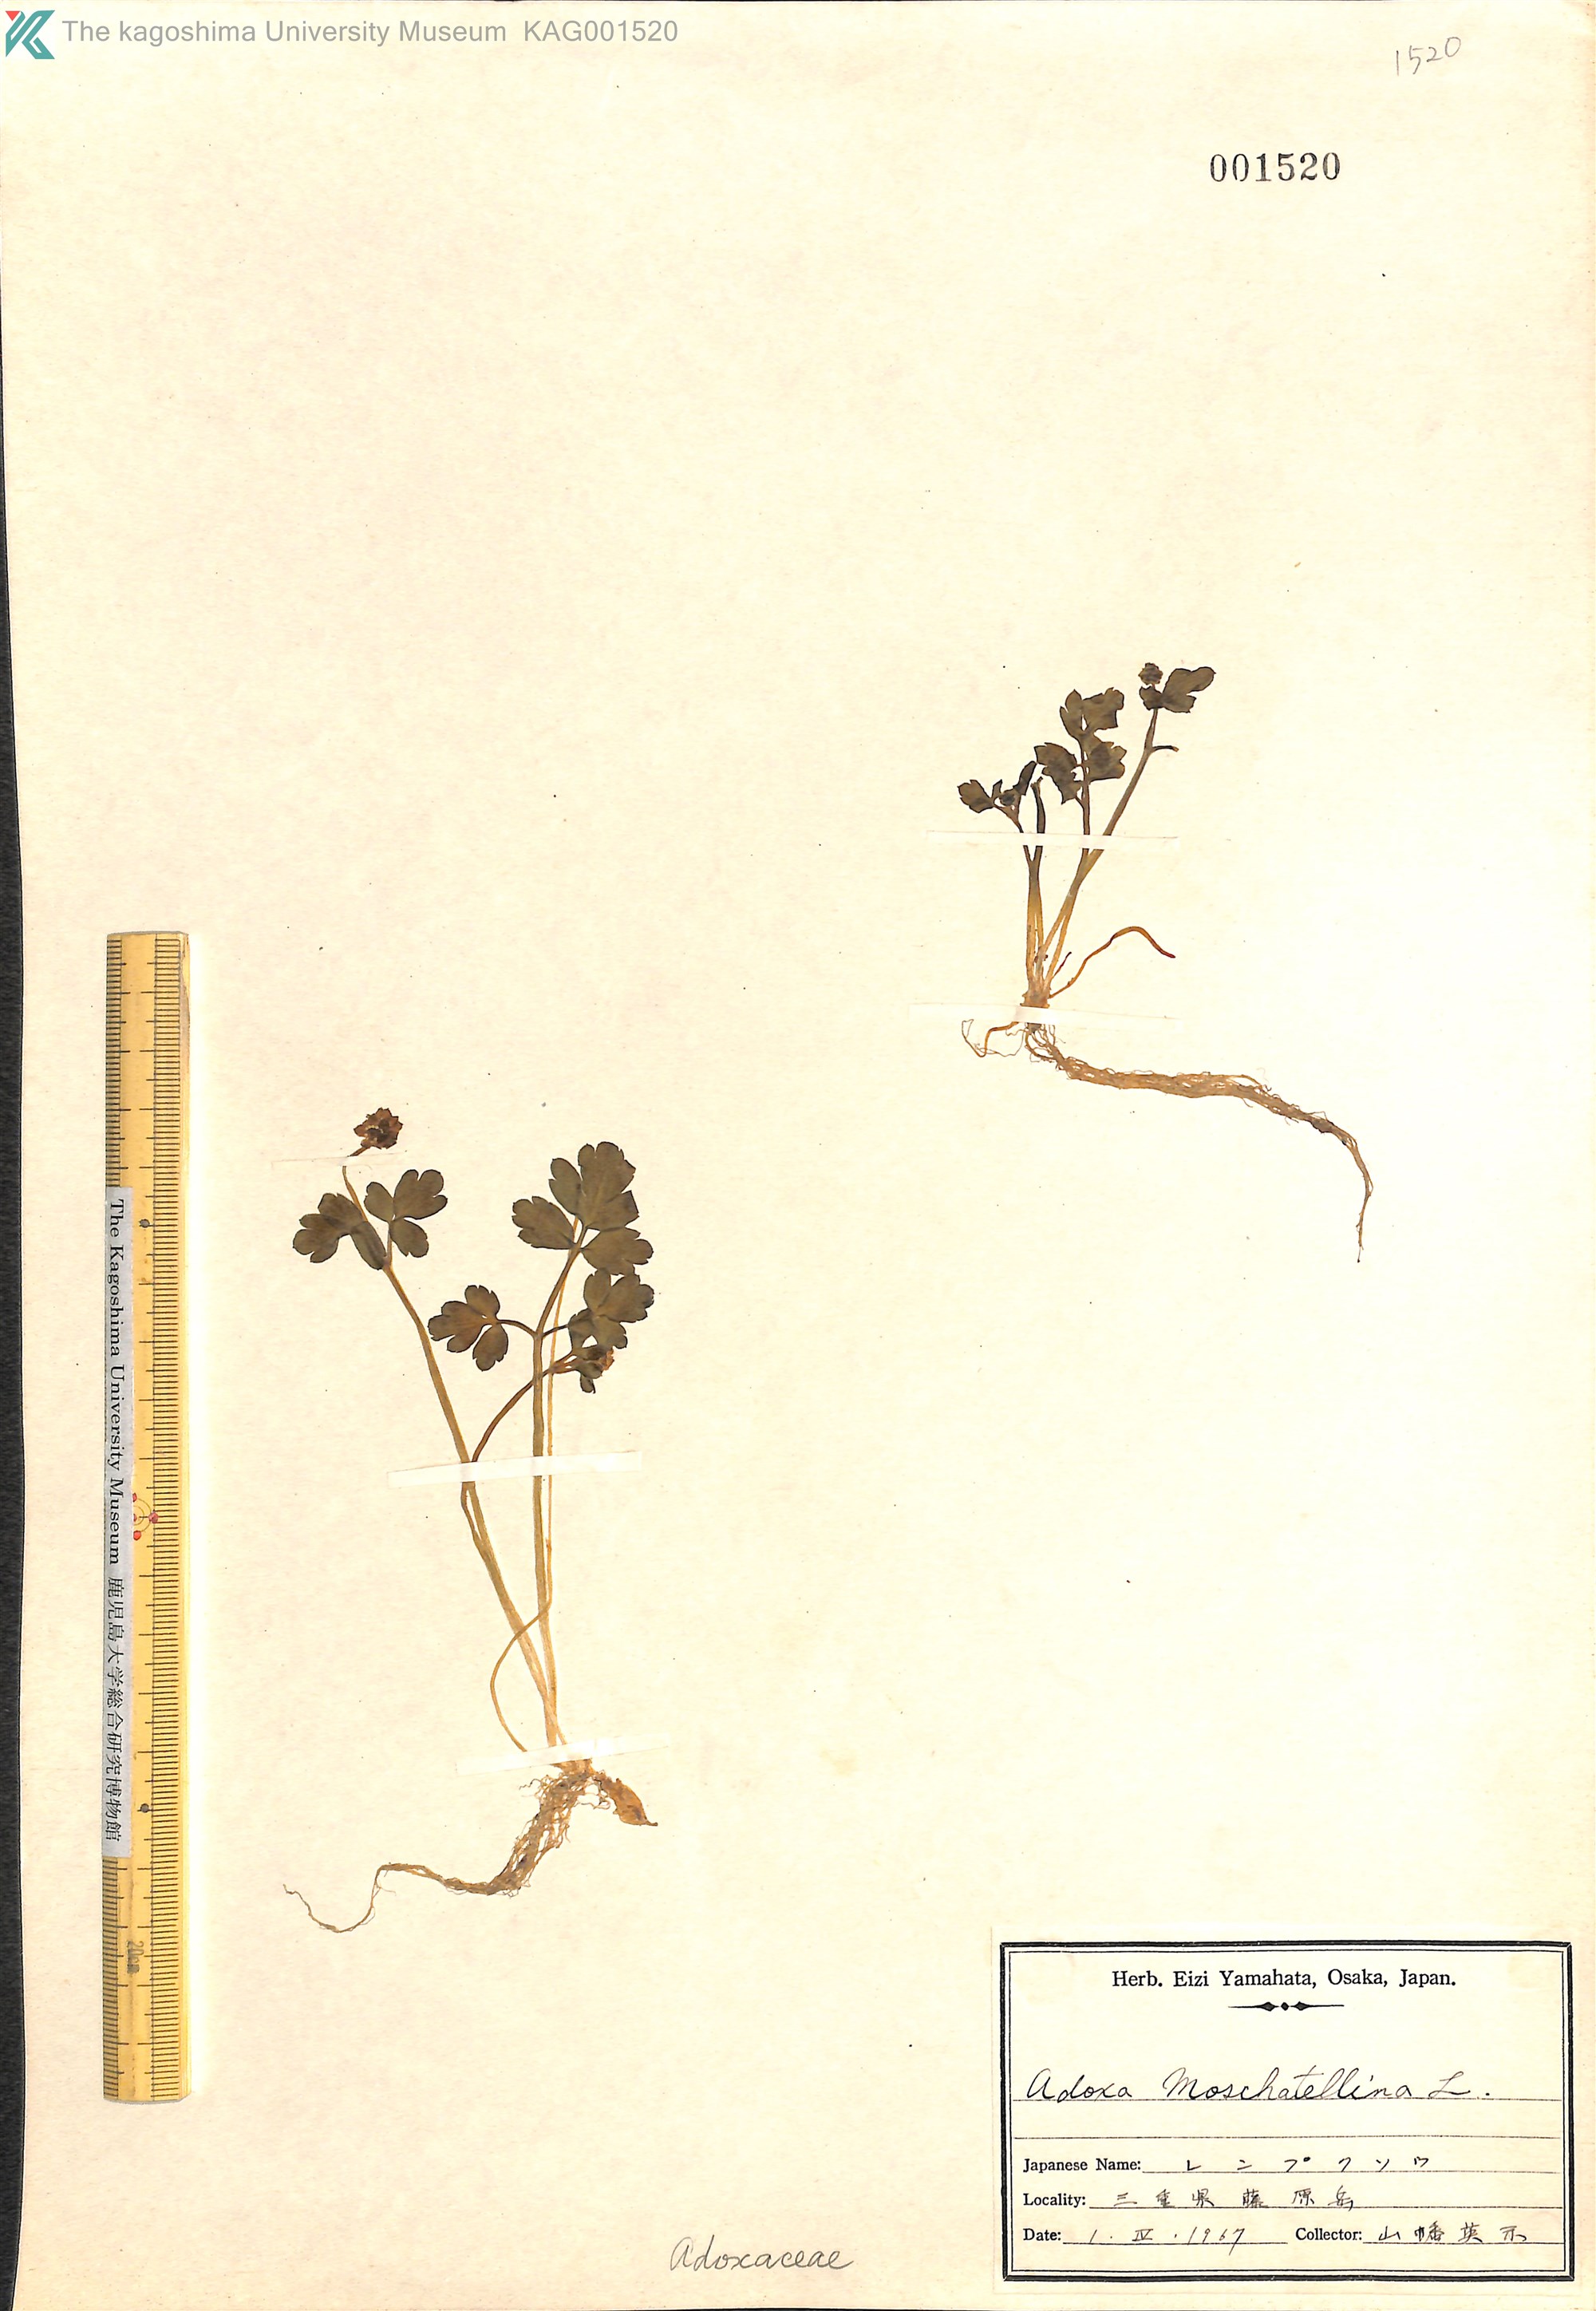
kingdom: Plantae
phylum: Tracheophyta
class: Magnoliopsida
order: Dipsacales
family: Viburnaceae
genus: Adoxa
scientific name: Adoxa moschatellina
